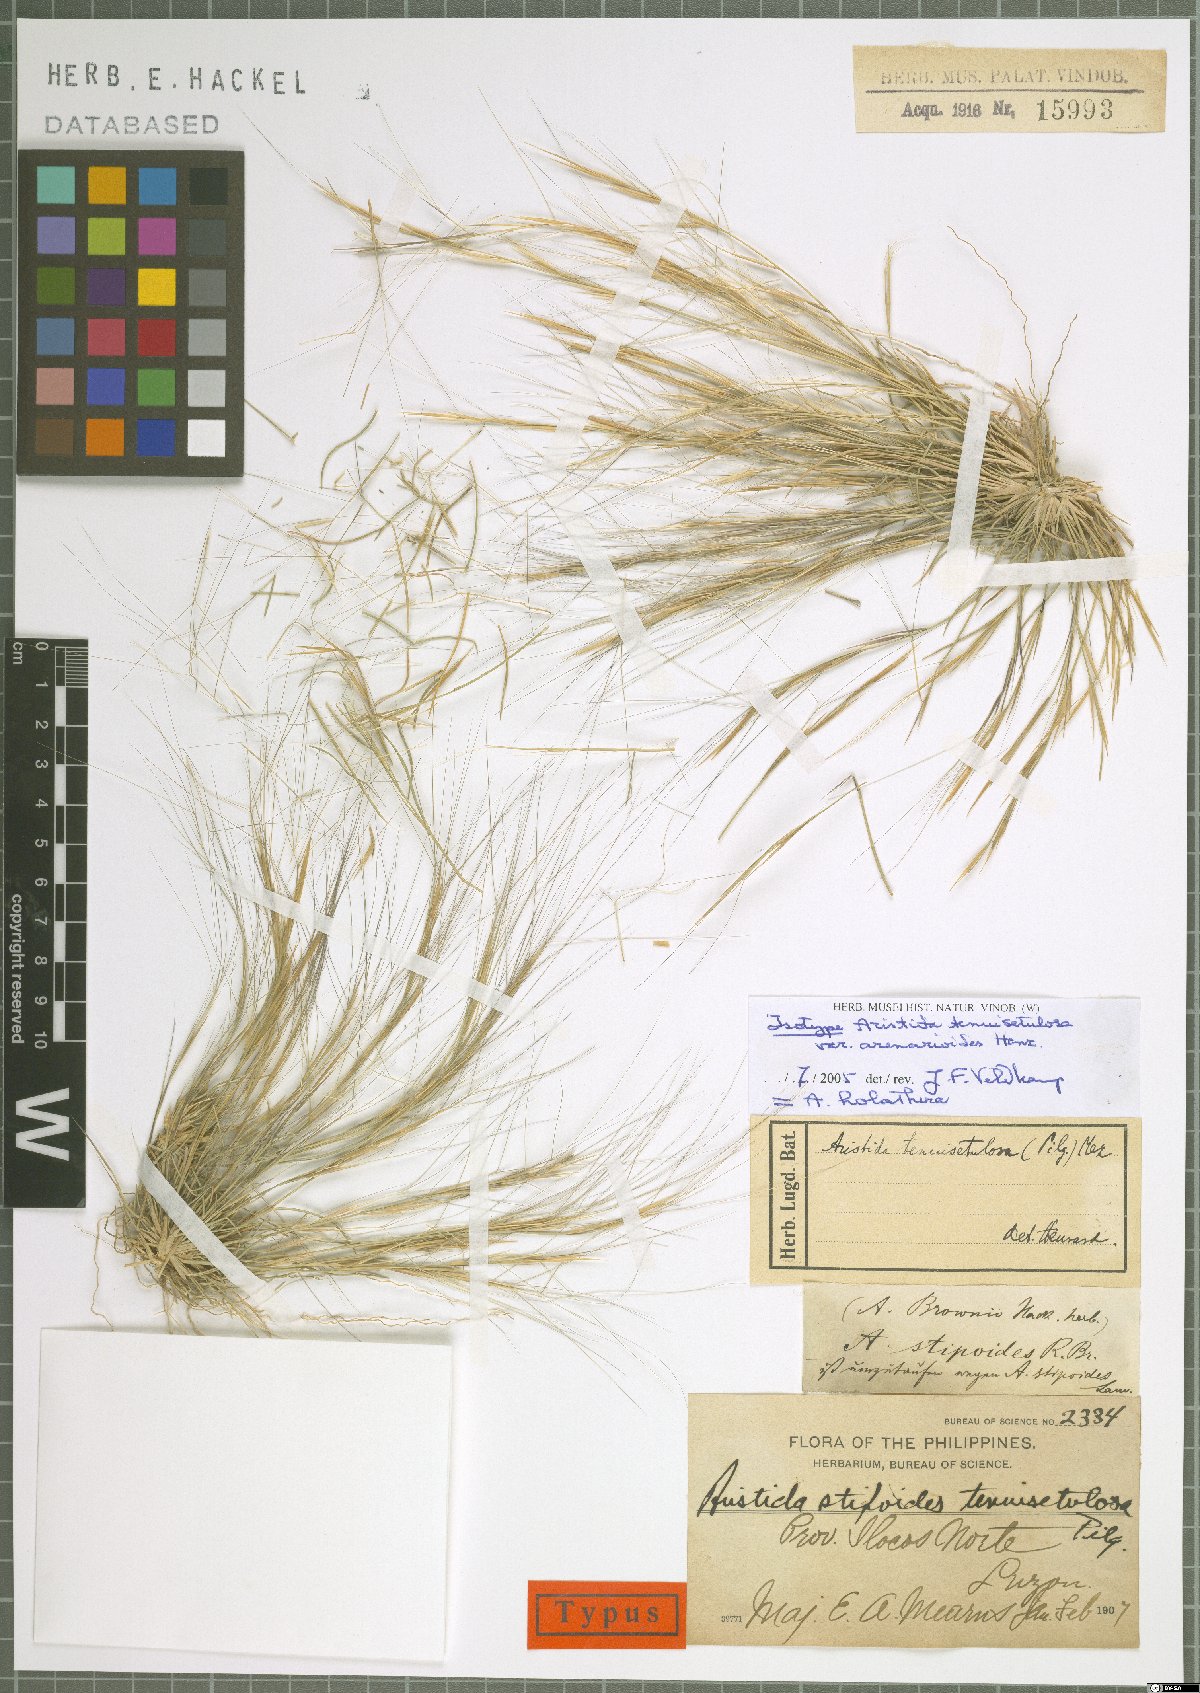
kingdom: Plantae
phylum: Tracheophyta
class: Liliopsida
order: Poales
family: Poaceae
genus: Aristida
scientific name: Aristida holathera
